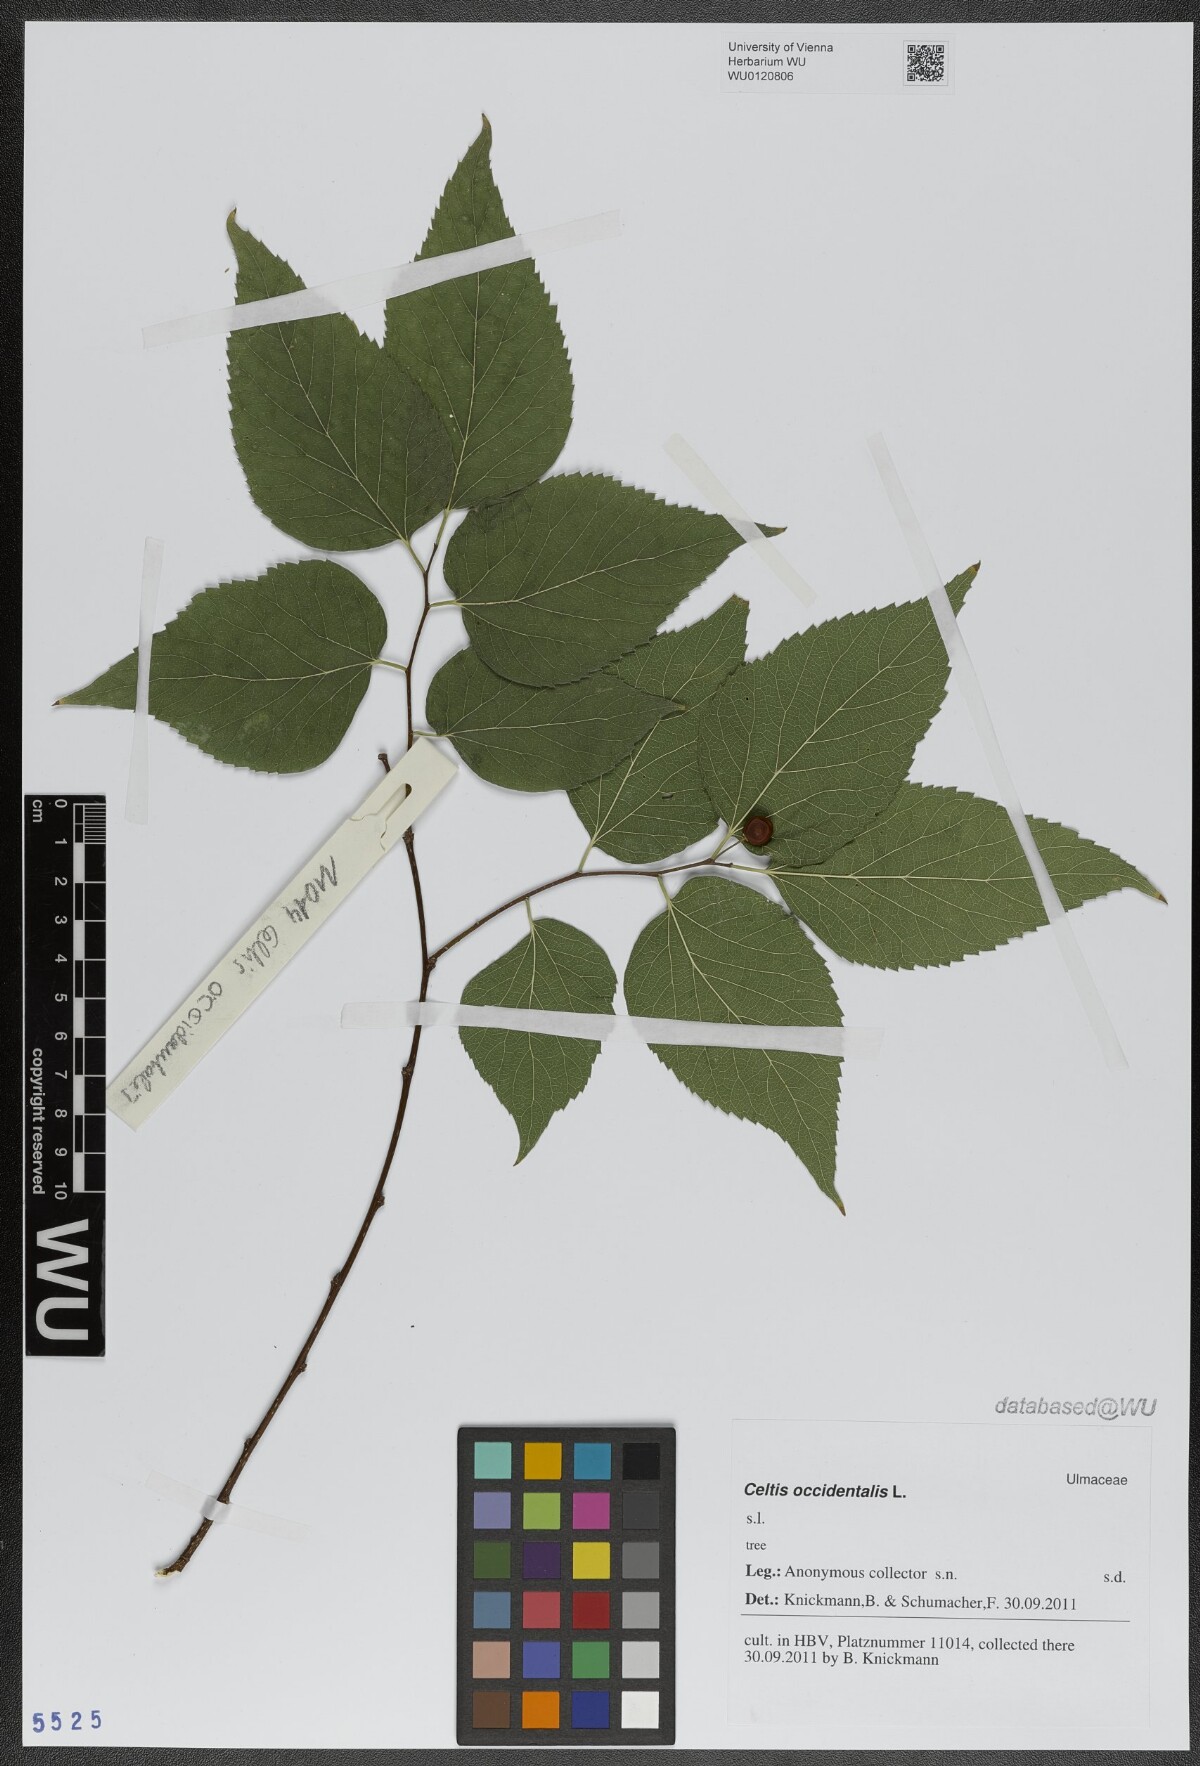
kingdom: Plantae
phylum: Tracheophyta
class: Magnoliopsida
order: Rosales
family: Cannabaceae
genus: Celtis
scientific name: Celtis occidentalis
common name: Common hackberry
